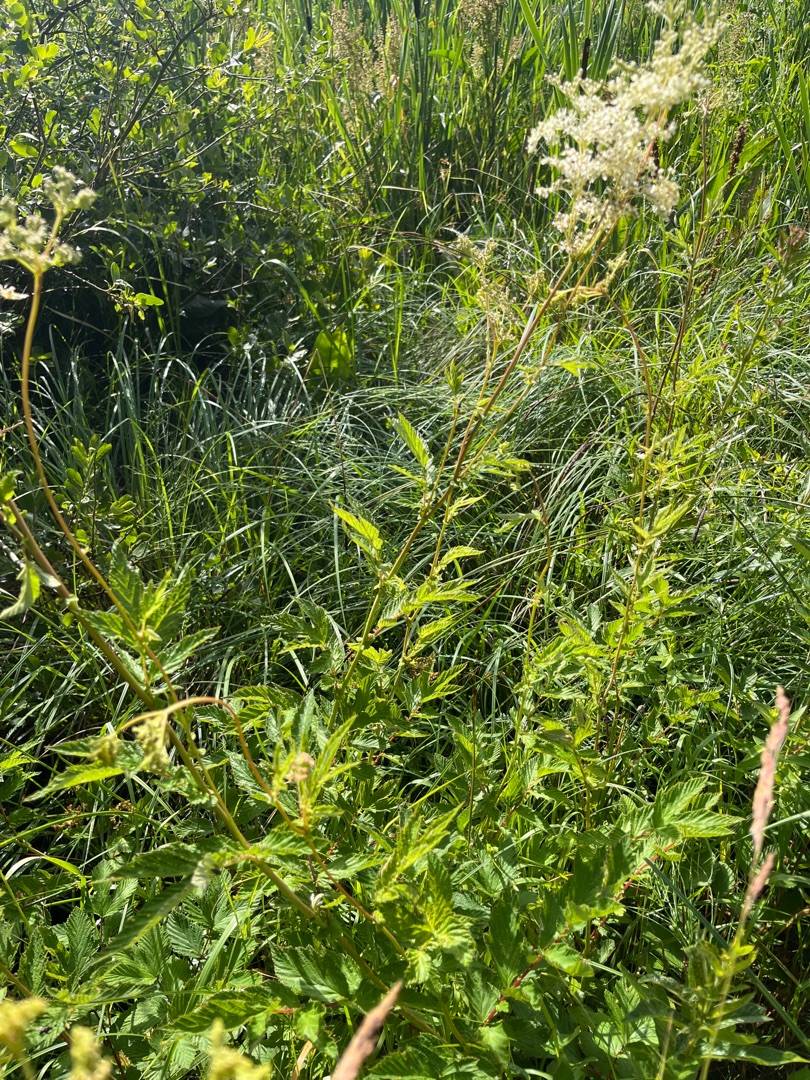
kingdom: Plantae
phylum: Tracheophyta
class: Magnoliopsida
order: Rosales
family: Rosaceae
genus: Filipendula
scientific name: Filipendula ulmaria
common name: Almindelig mjødurt
